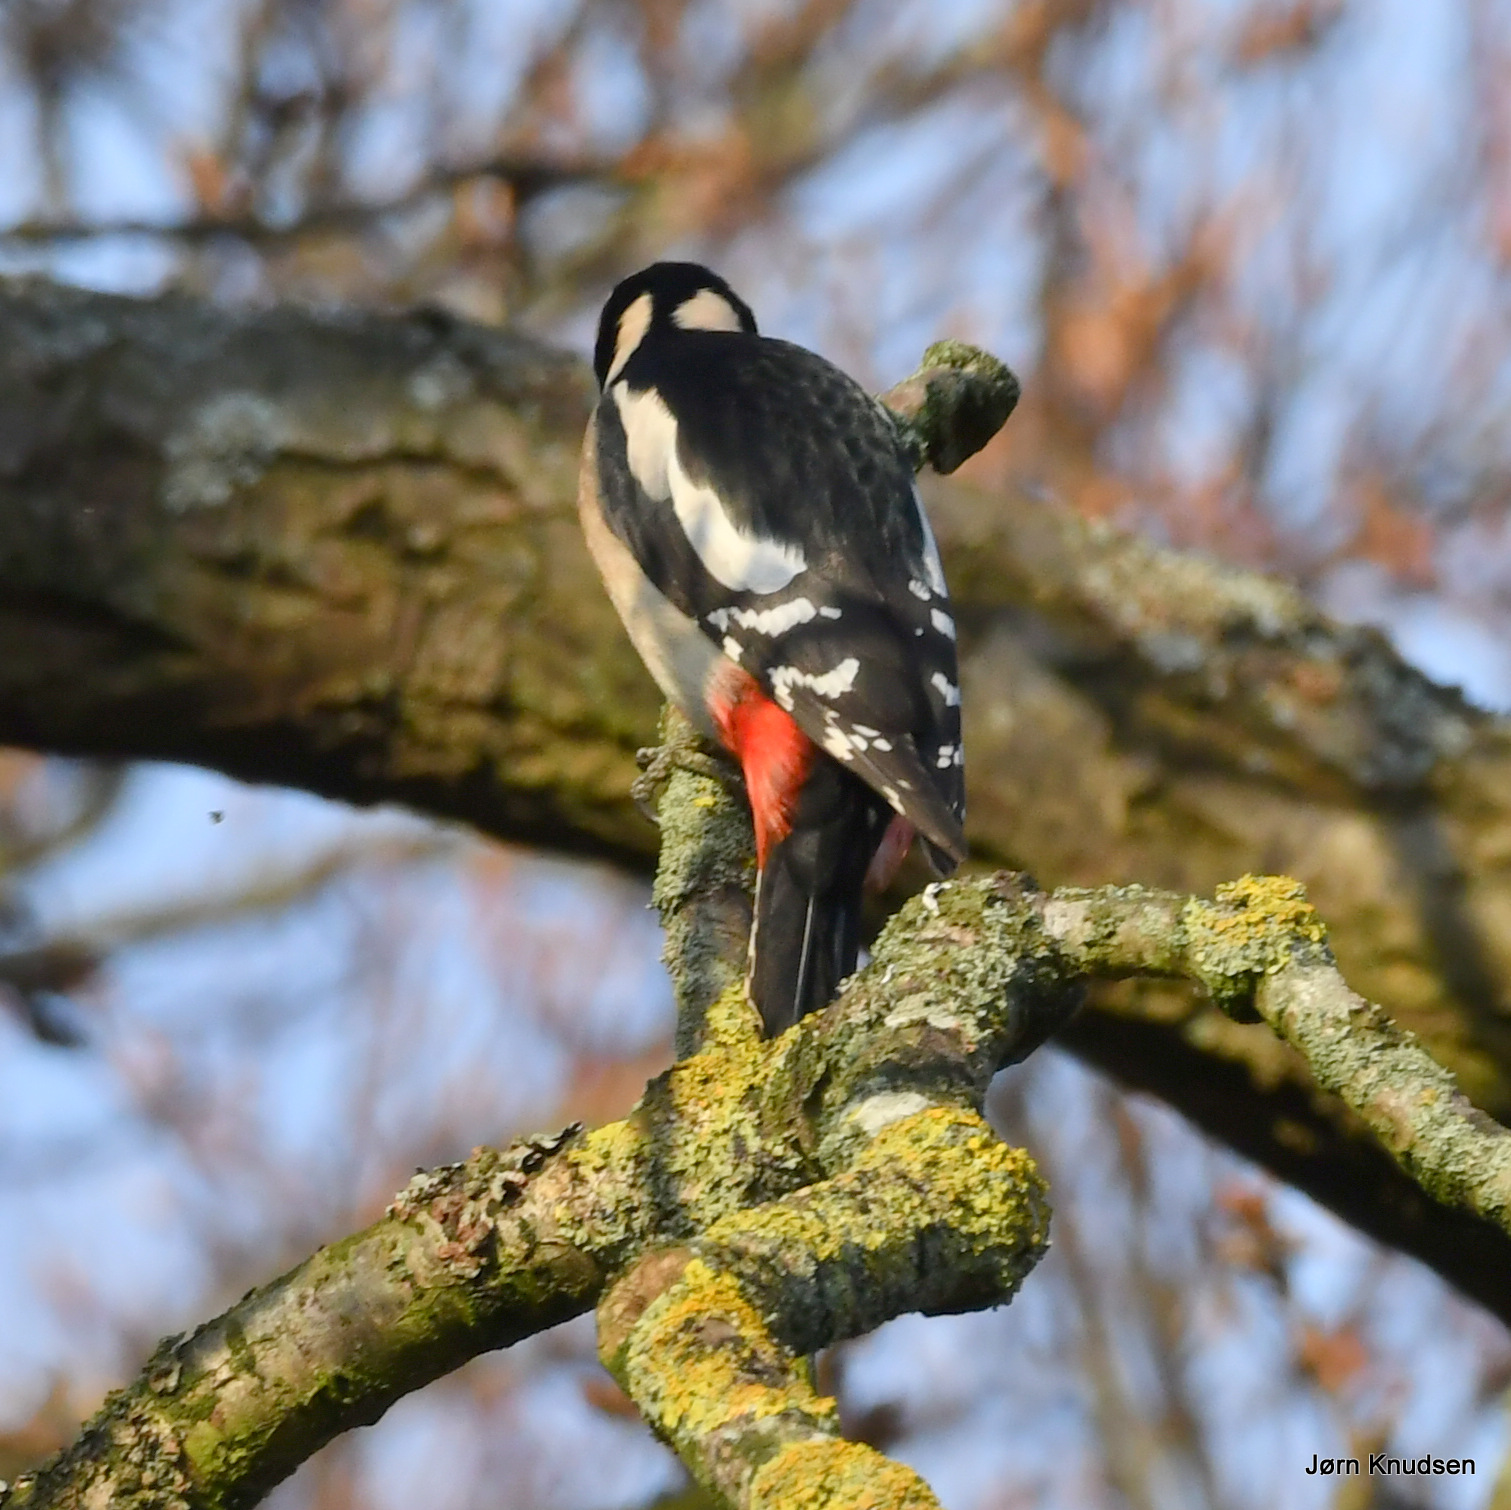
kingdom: Animalia
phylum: Chordata
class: Aves
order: Piciformes
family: Picidae
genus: Dendrocopos
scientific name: Dendrocopos major
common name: Stor flagspætte
